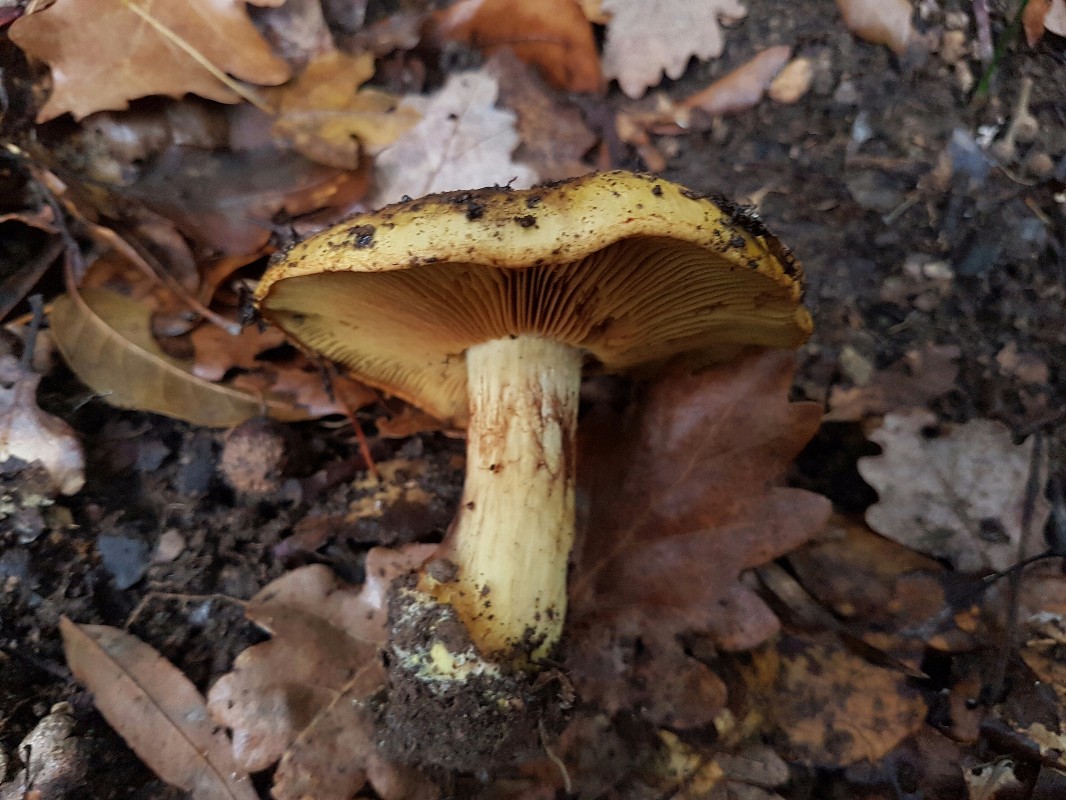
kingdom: Fungi
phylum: Basidiomycota
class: Agaricomycetes
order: Agaricales
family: Cortinariaceae
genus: Calonarius
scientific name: Calonarius olearioides
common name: safran-slørhat
